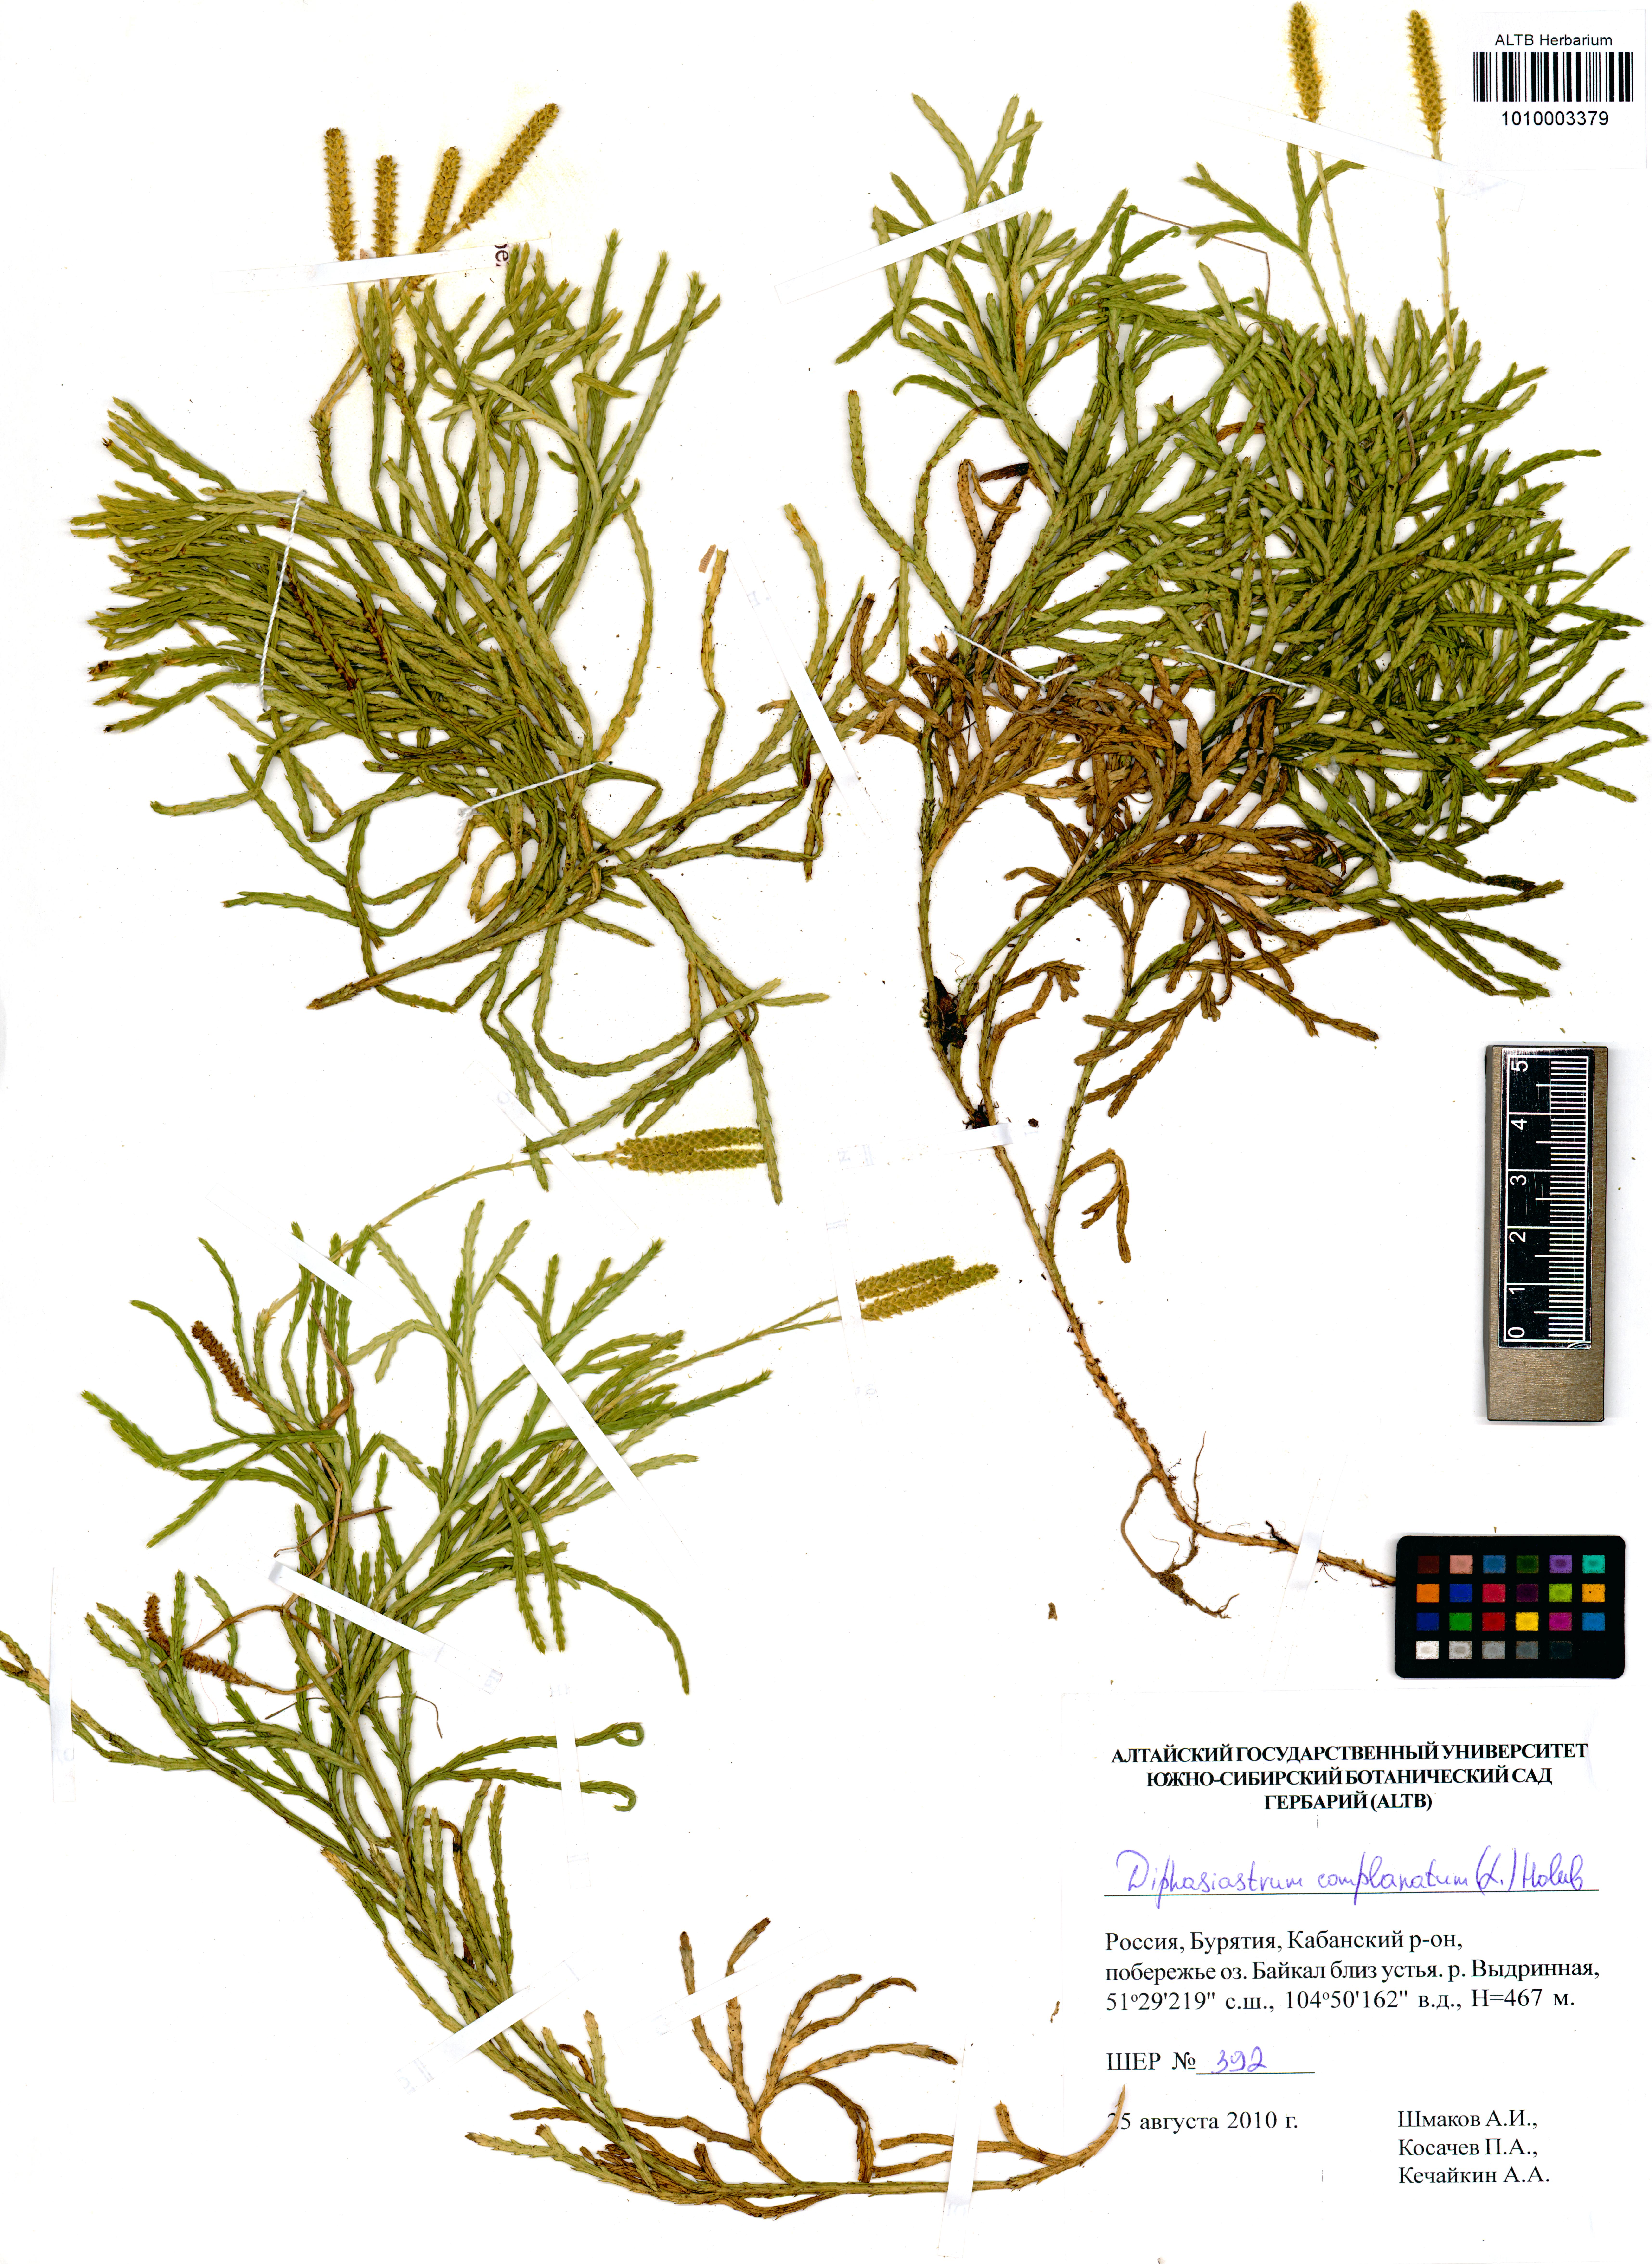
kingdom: Plantae
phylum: Tracheophyta
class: Lycopodiopsida
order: Lycopodiales
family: Lycopodiaceae
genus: Diphasiastrum
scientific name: Diphasiastrum complanatum
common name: Northern running-pine
